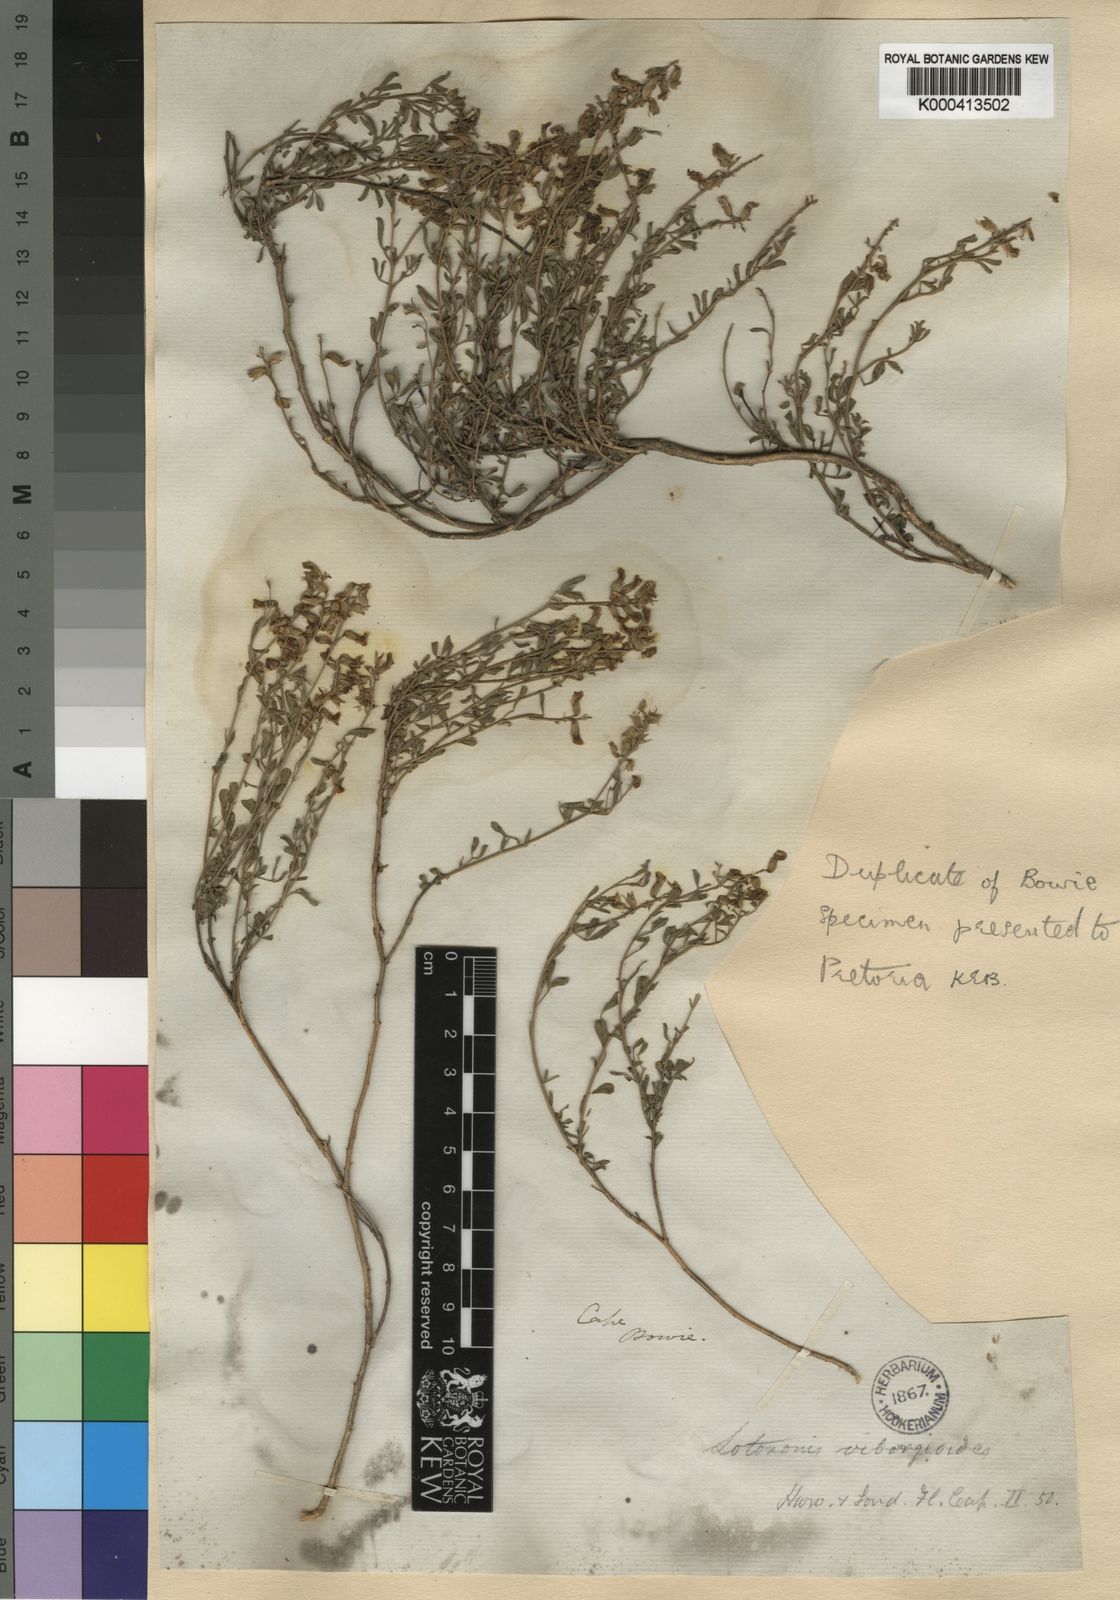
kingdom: Plantae
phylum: Tracheophyta
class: Magnoliopsida
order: Fabales
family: Fabaceae
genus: Lotononis
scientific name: Lotononis viborgioides
